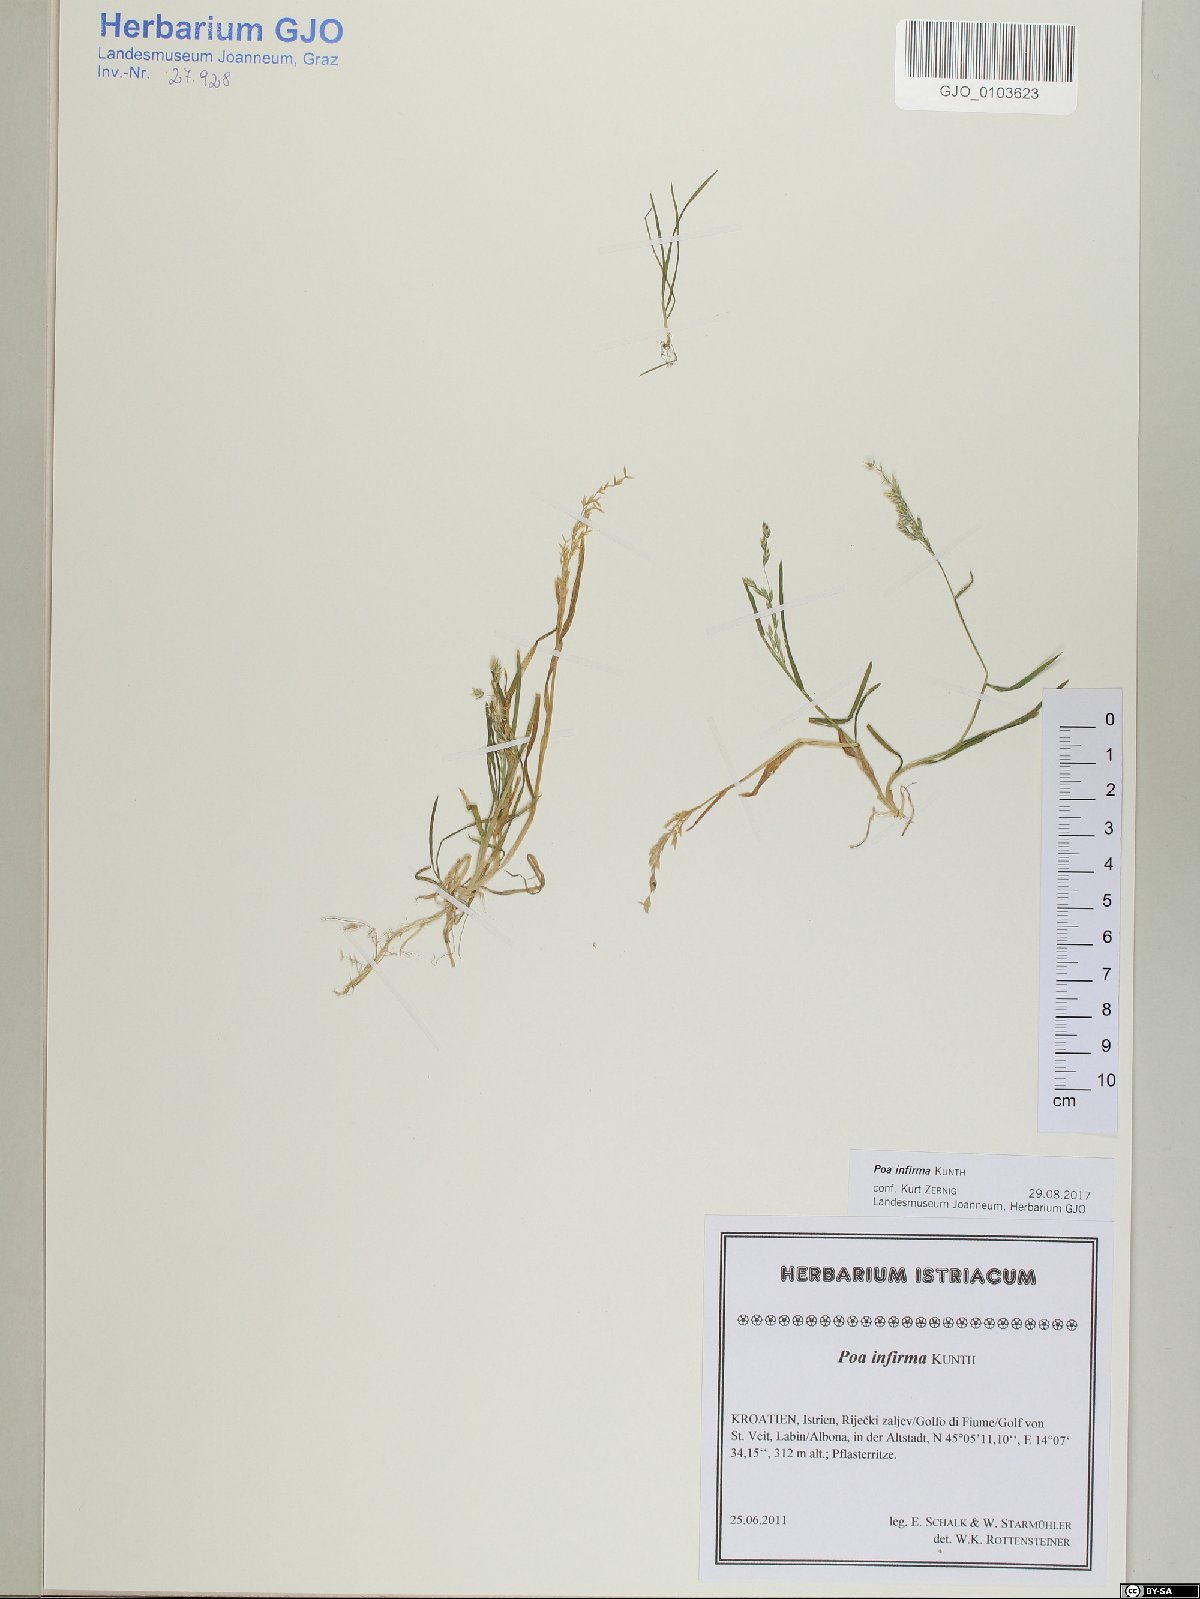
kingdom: Plantae
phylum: Tracheophyta
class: Liliopsida
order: Poales
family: Poaceae
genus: Poa
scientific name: Poa infirma
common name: Weak bluegrass
